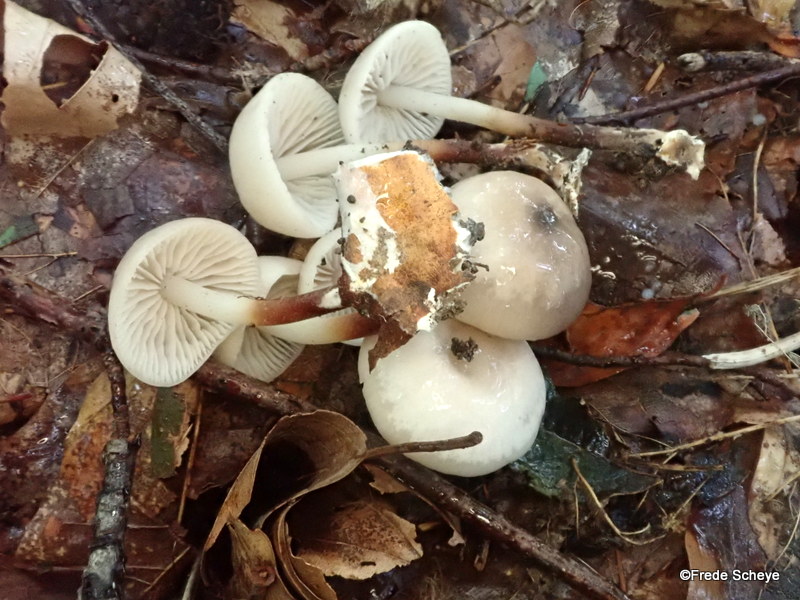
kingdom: Fungi
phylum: Basidiomycota
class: Agaricomycetes
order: Agaricales
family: Marasmiaceae
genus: Marasmius
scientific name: Marasmius wynneae
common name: hvælvet bruskhat
